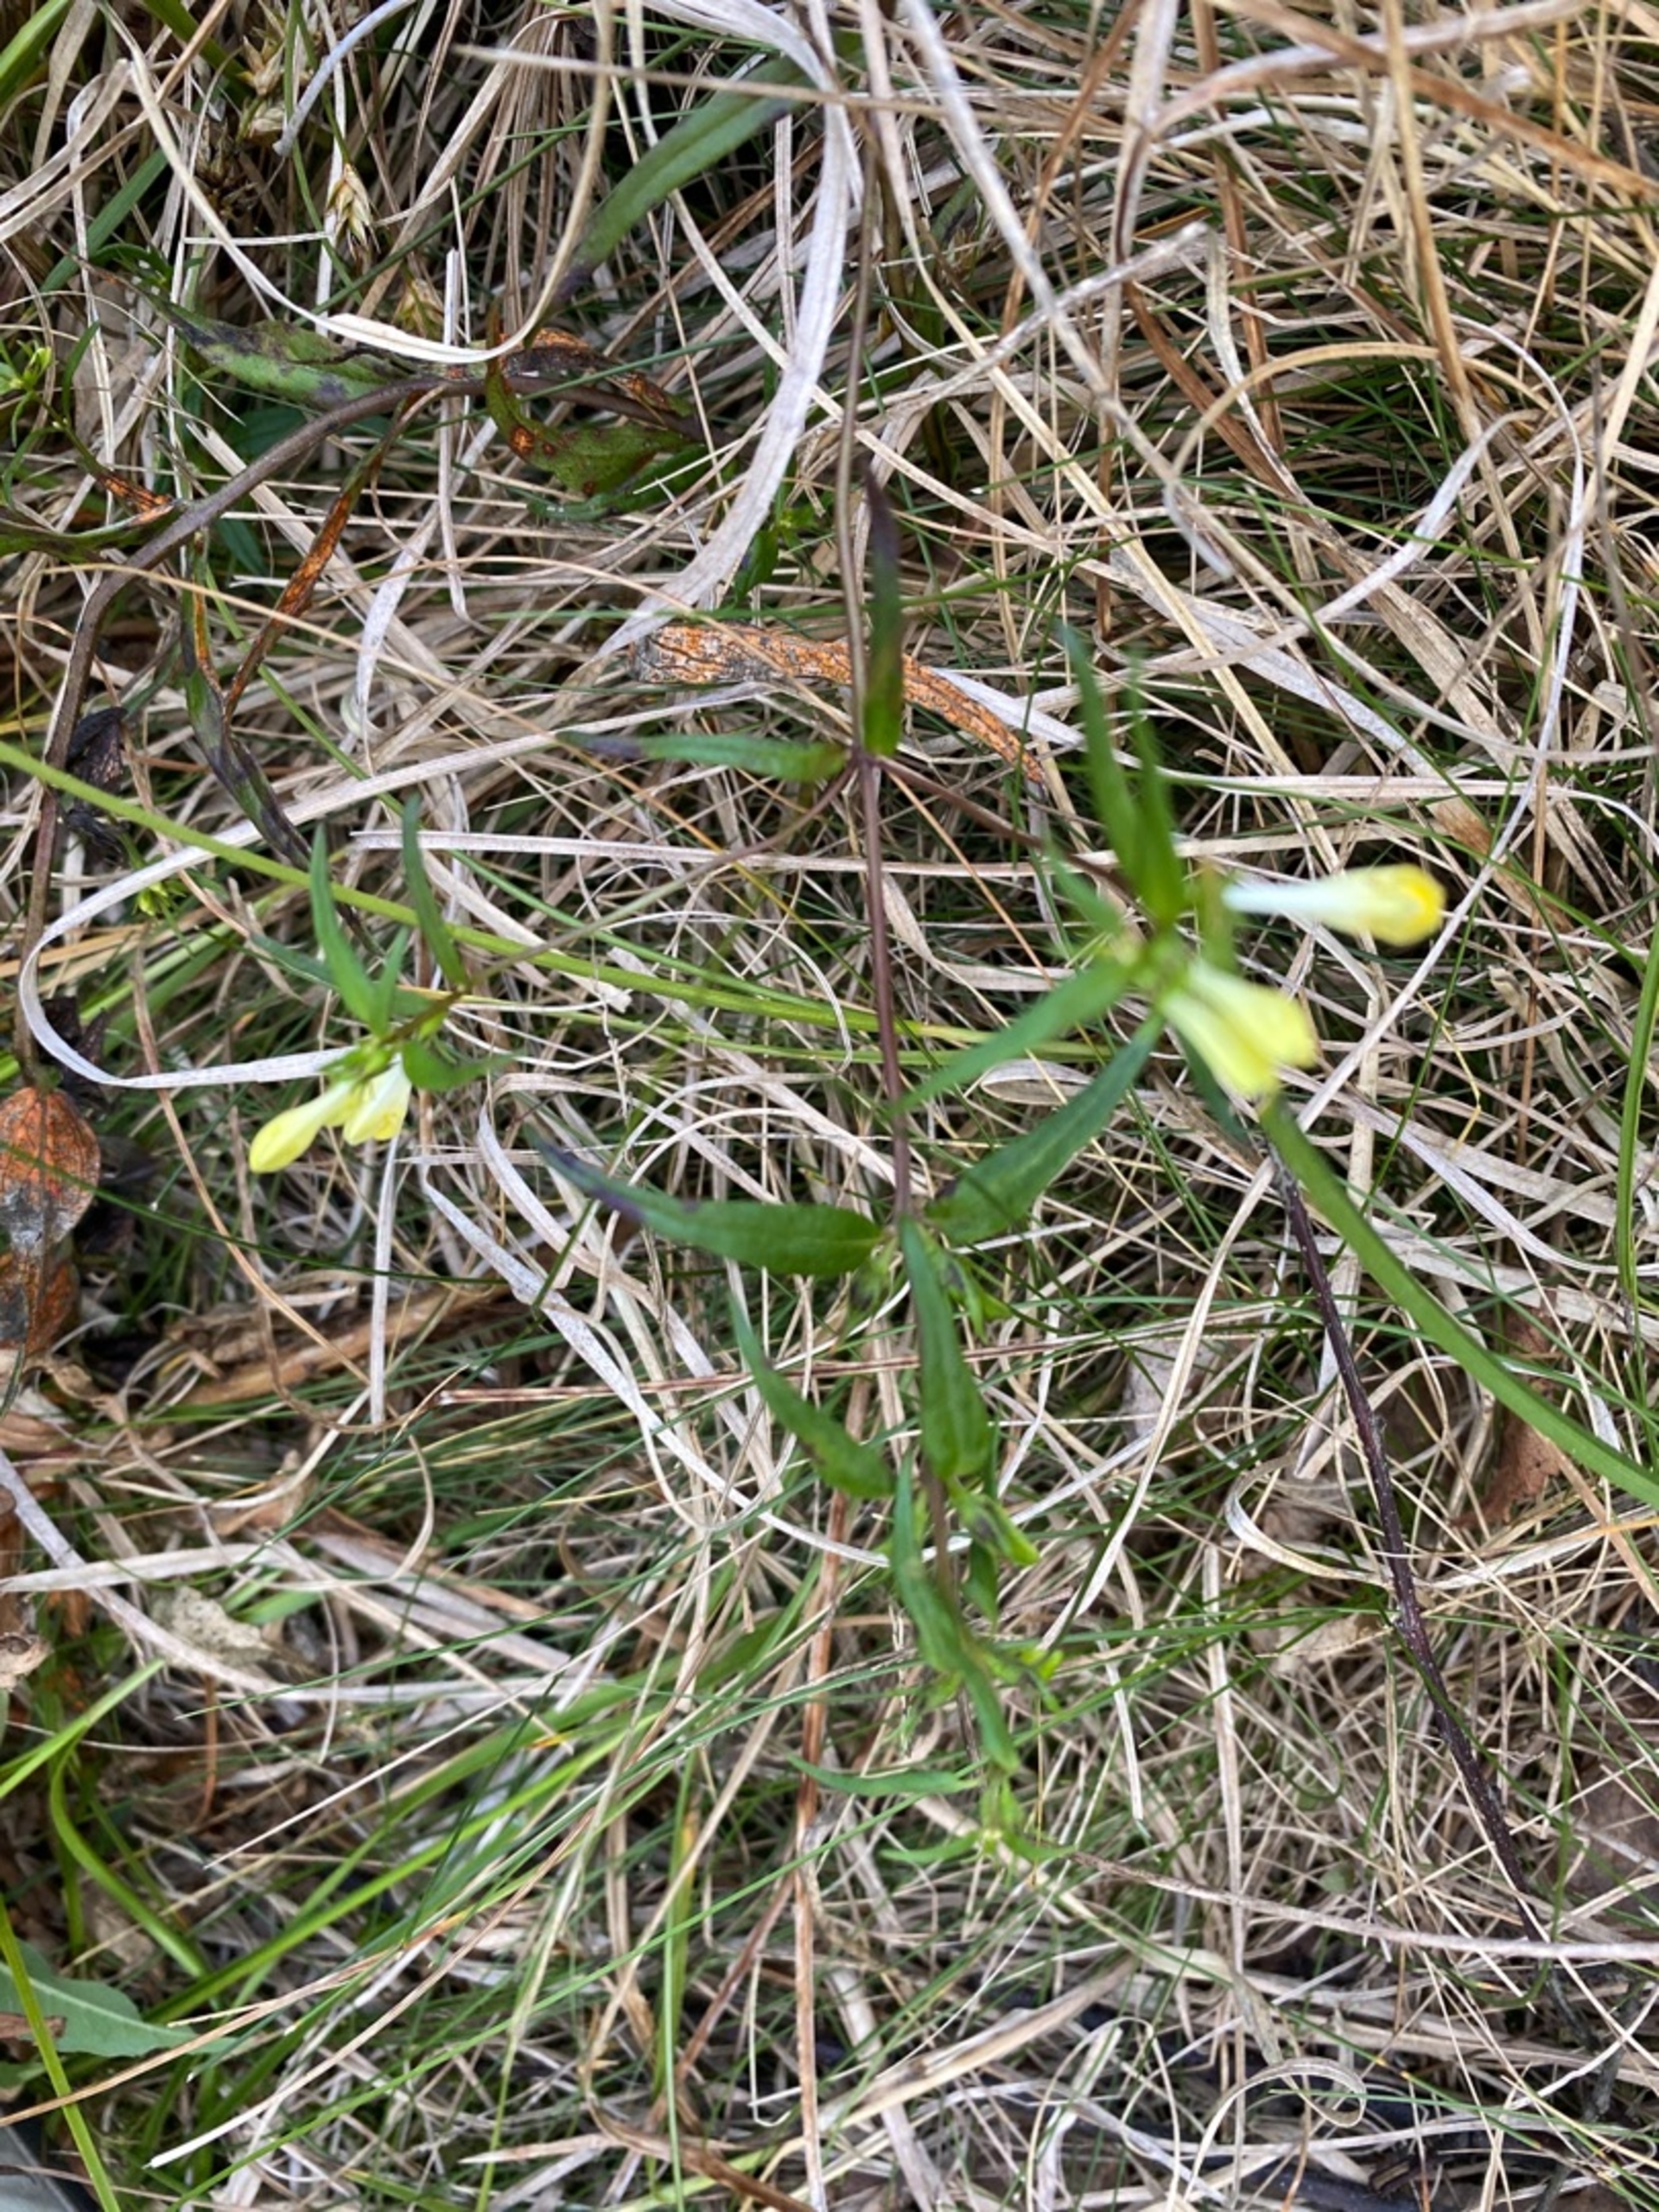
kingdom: Plantae
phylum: Tracheophyta
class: Magnoliopsida
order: Lamiales
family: Orobanchaceae
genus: Melampyrum
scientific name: Melampyrum pratense
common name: Almindelig kohvede
